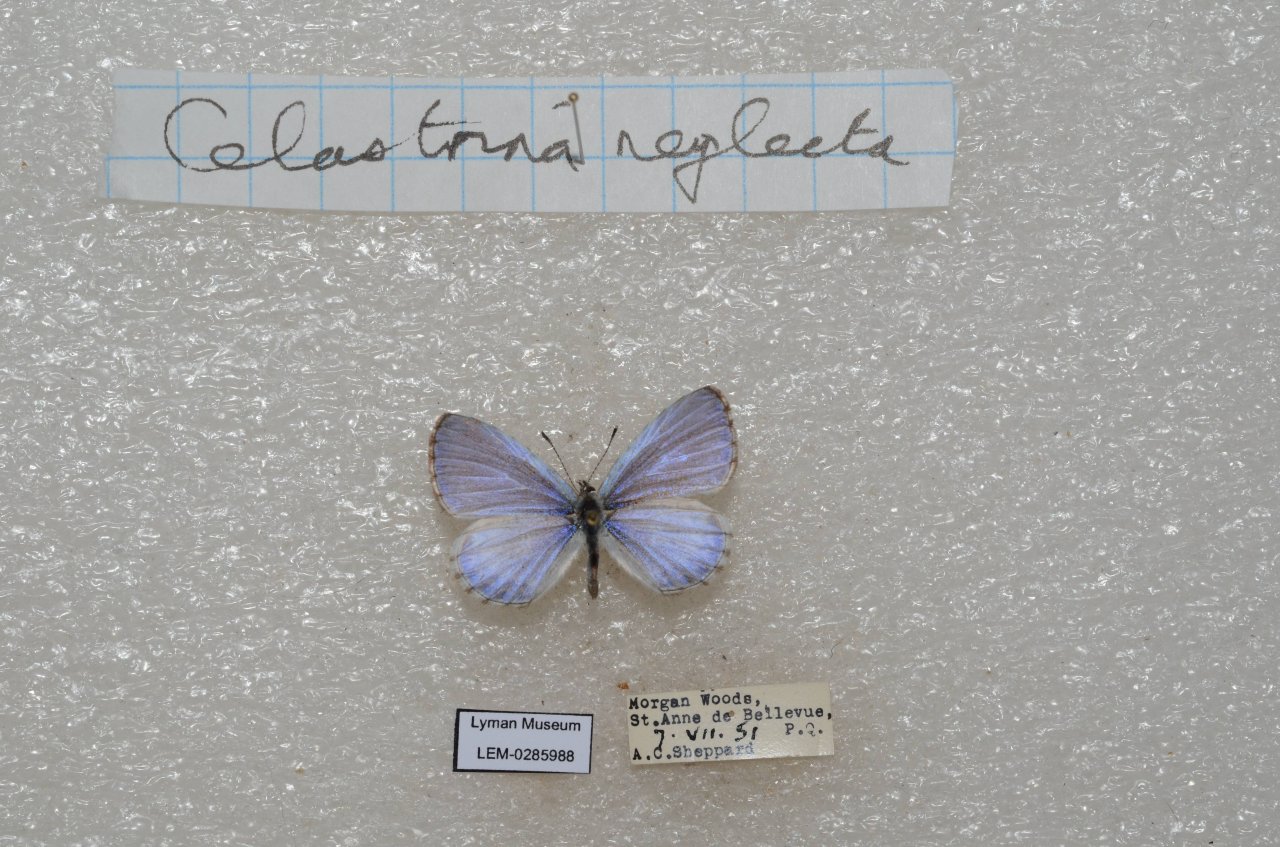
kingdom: Animalia
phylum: Arthropoda
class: Insecta
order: Lepidoptera
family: Lycaenidae
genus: Celastrina
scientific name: Celastrina lucia
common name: Northern Spring Azure
